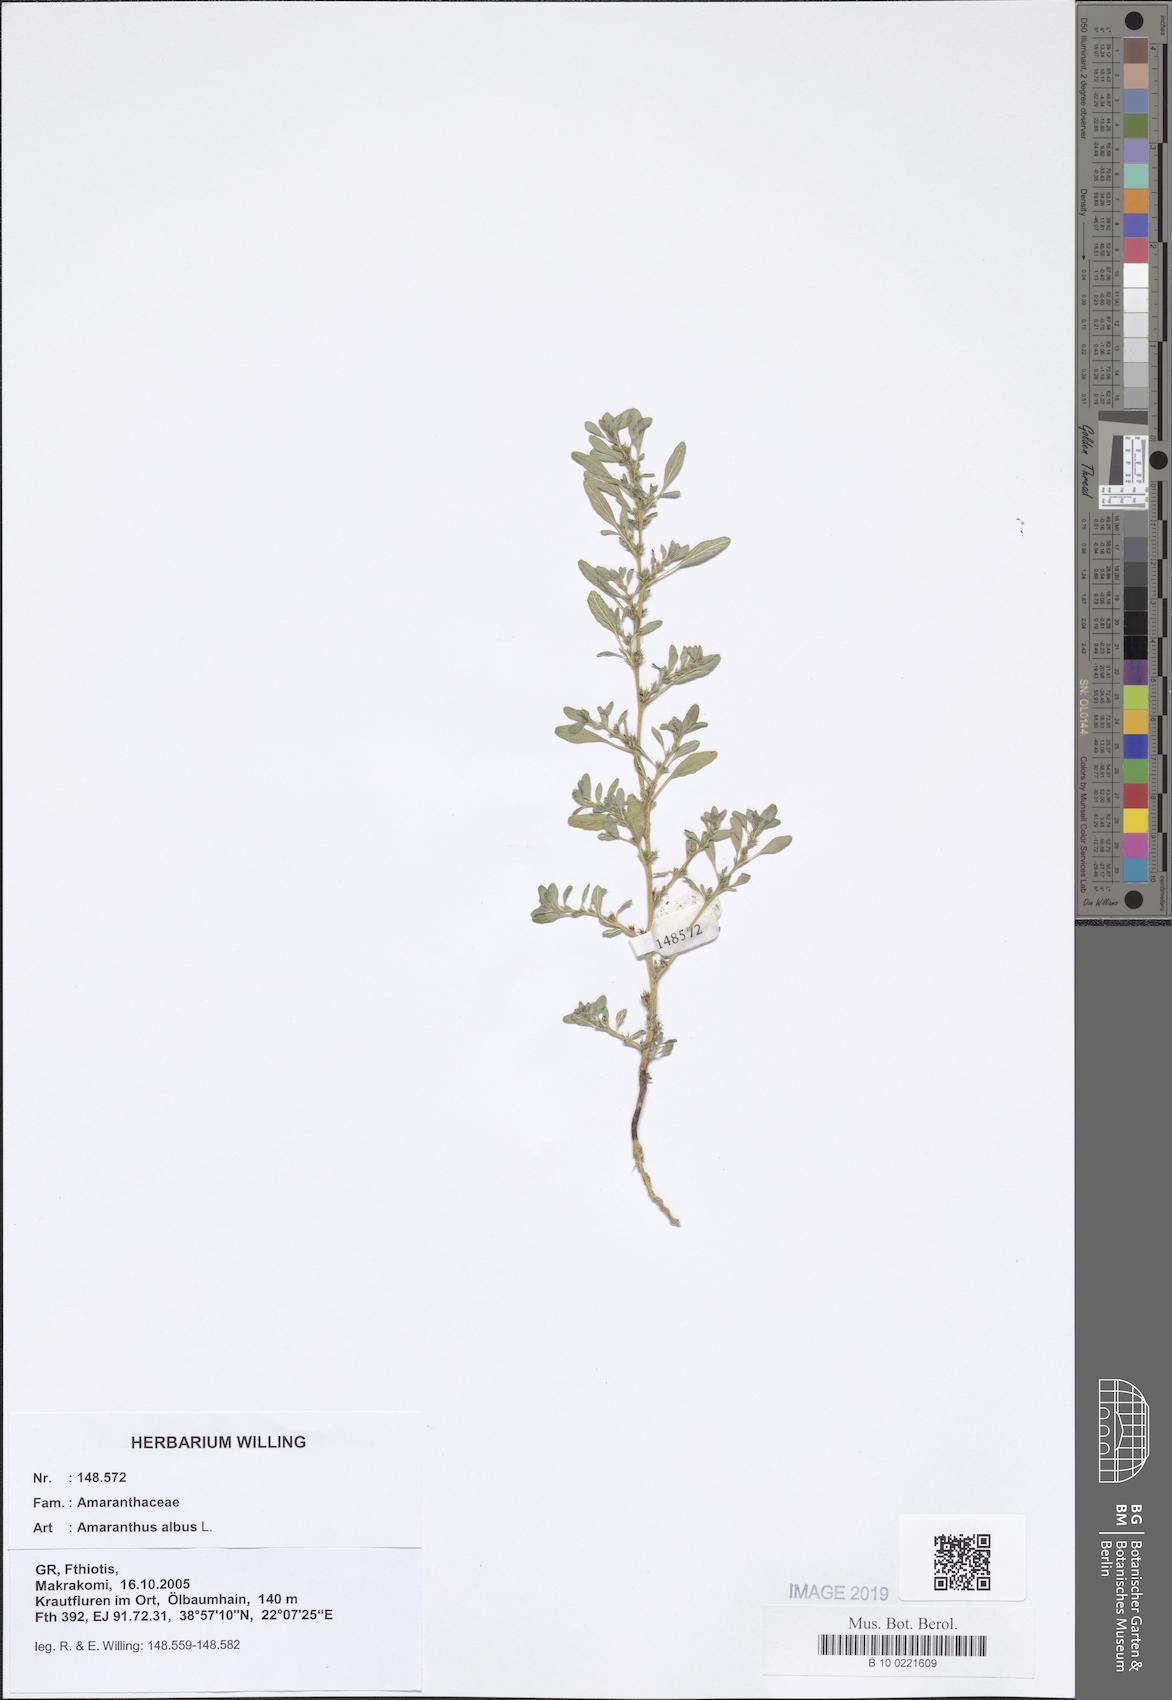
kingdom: Plantae
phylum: Tracheophyta
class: Magnoliopsida
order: Caryophyllales
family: Amaranthaceae
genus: Amaranthus
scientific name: Amaranthus albus
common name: White pigweed
